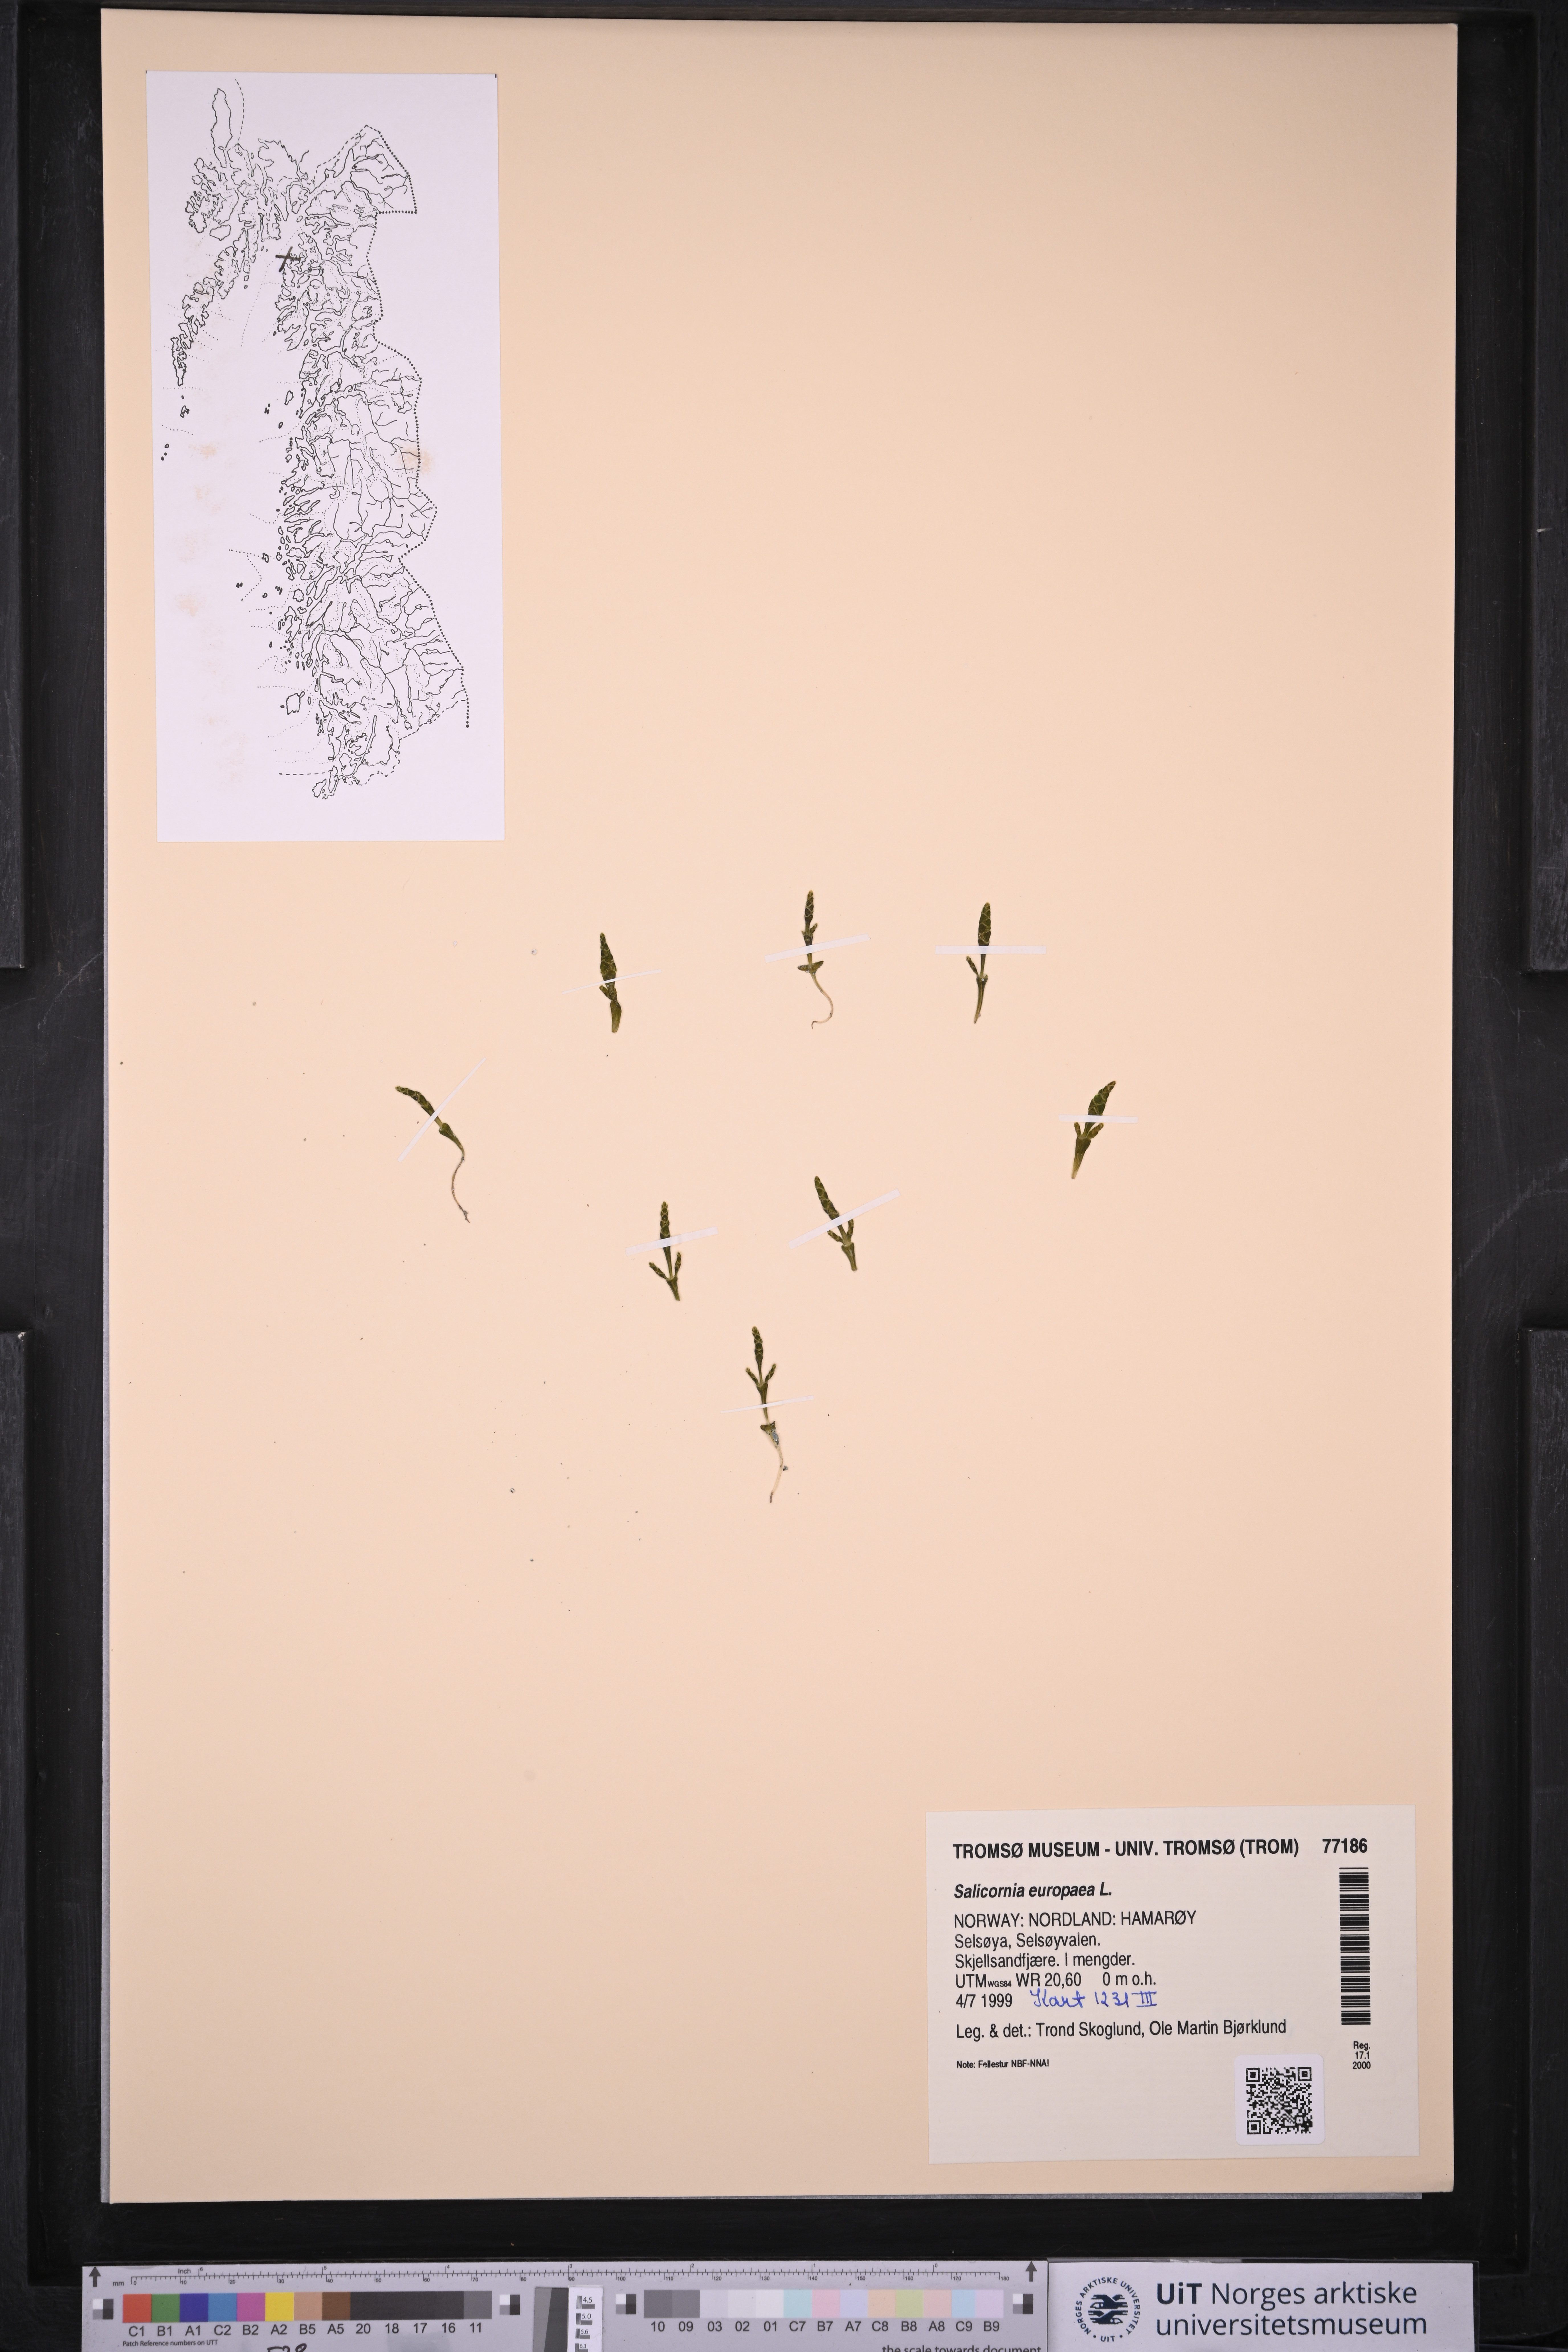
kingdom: Plantae
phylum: Tracheophyta
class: Magnoliopsida
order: Caryophyllales
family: Amaranthaceae
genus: Salicornia
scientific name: Salicornia europaea
